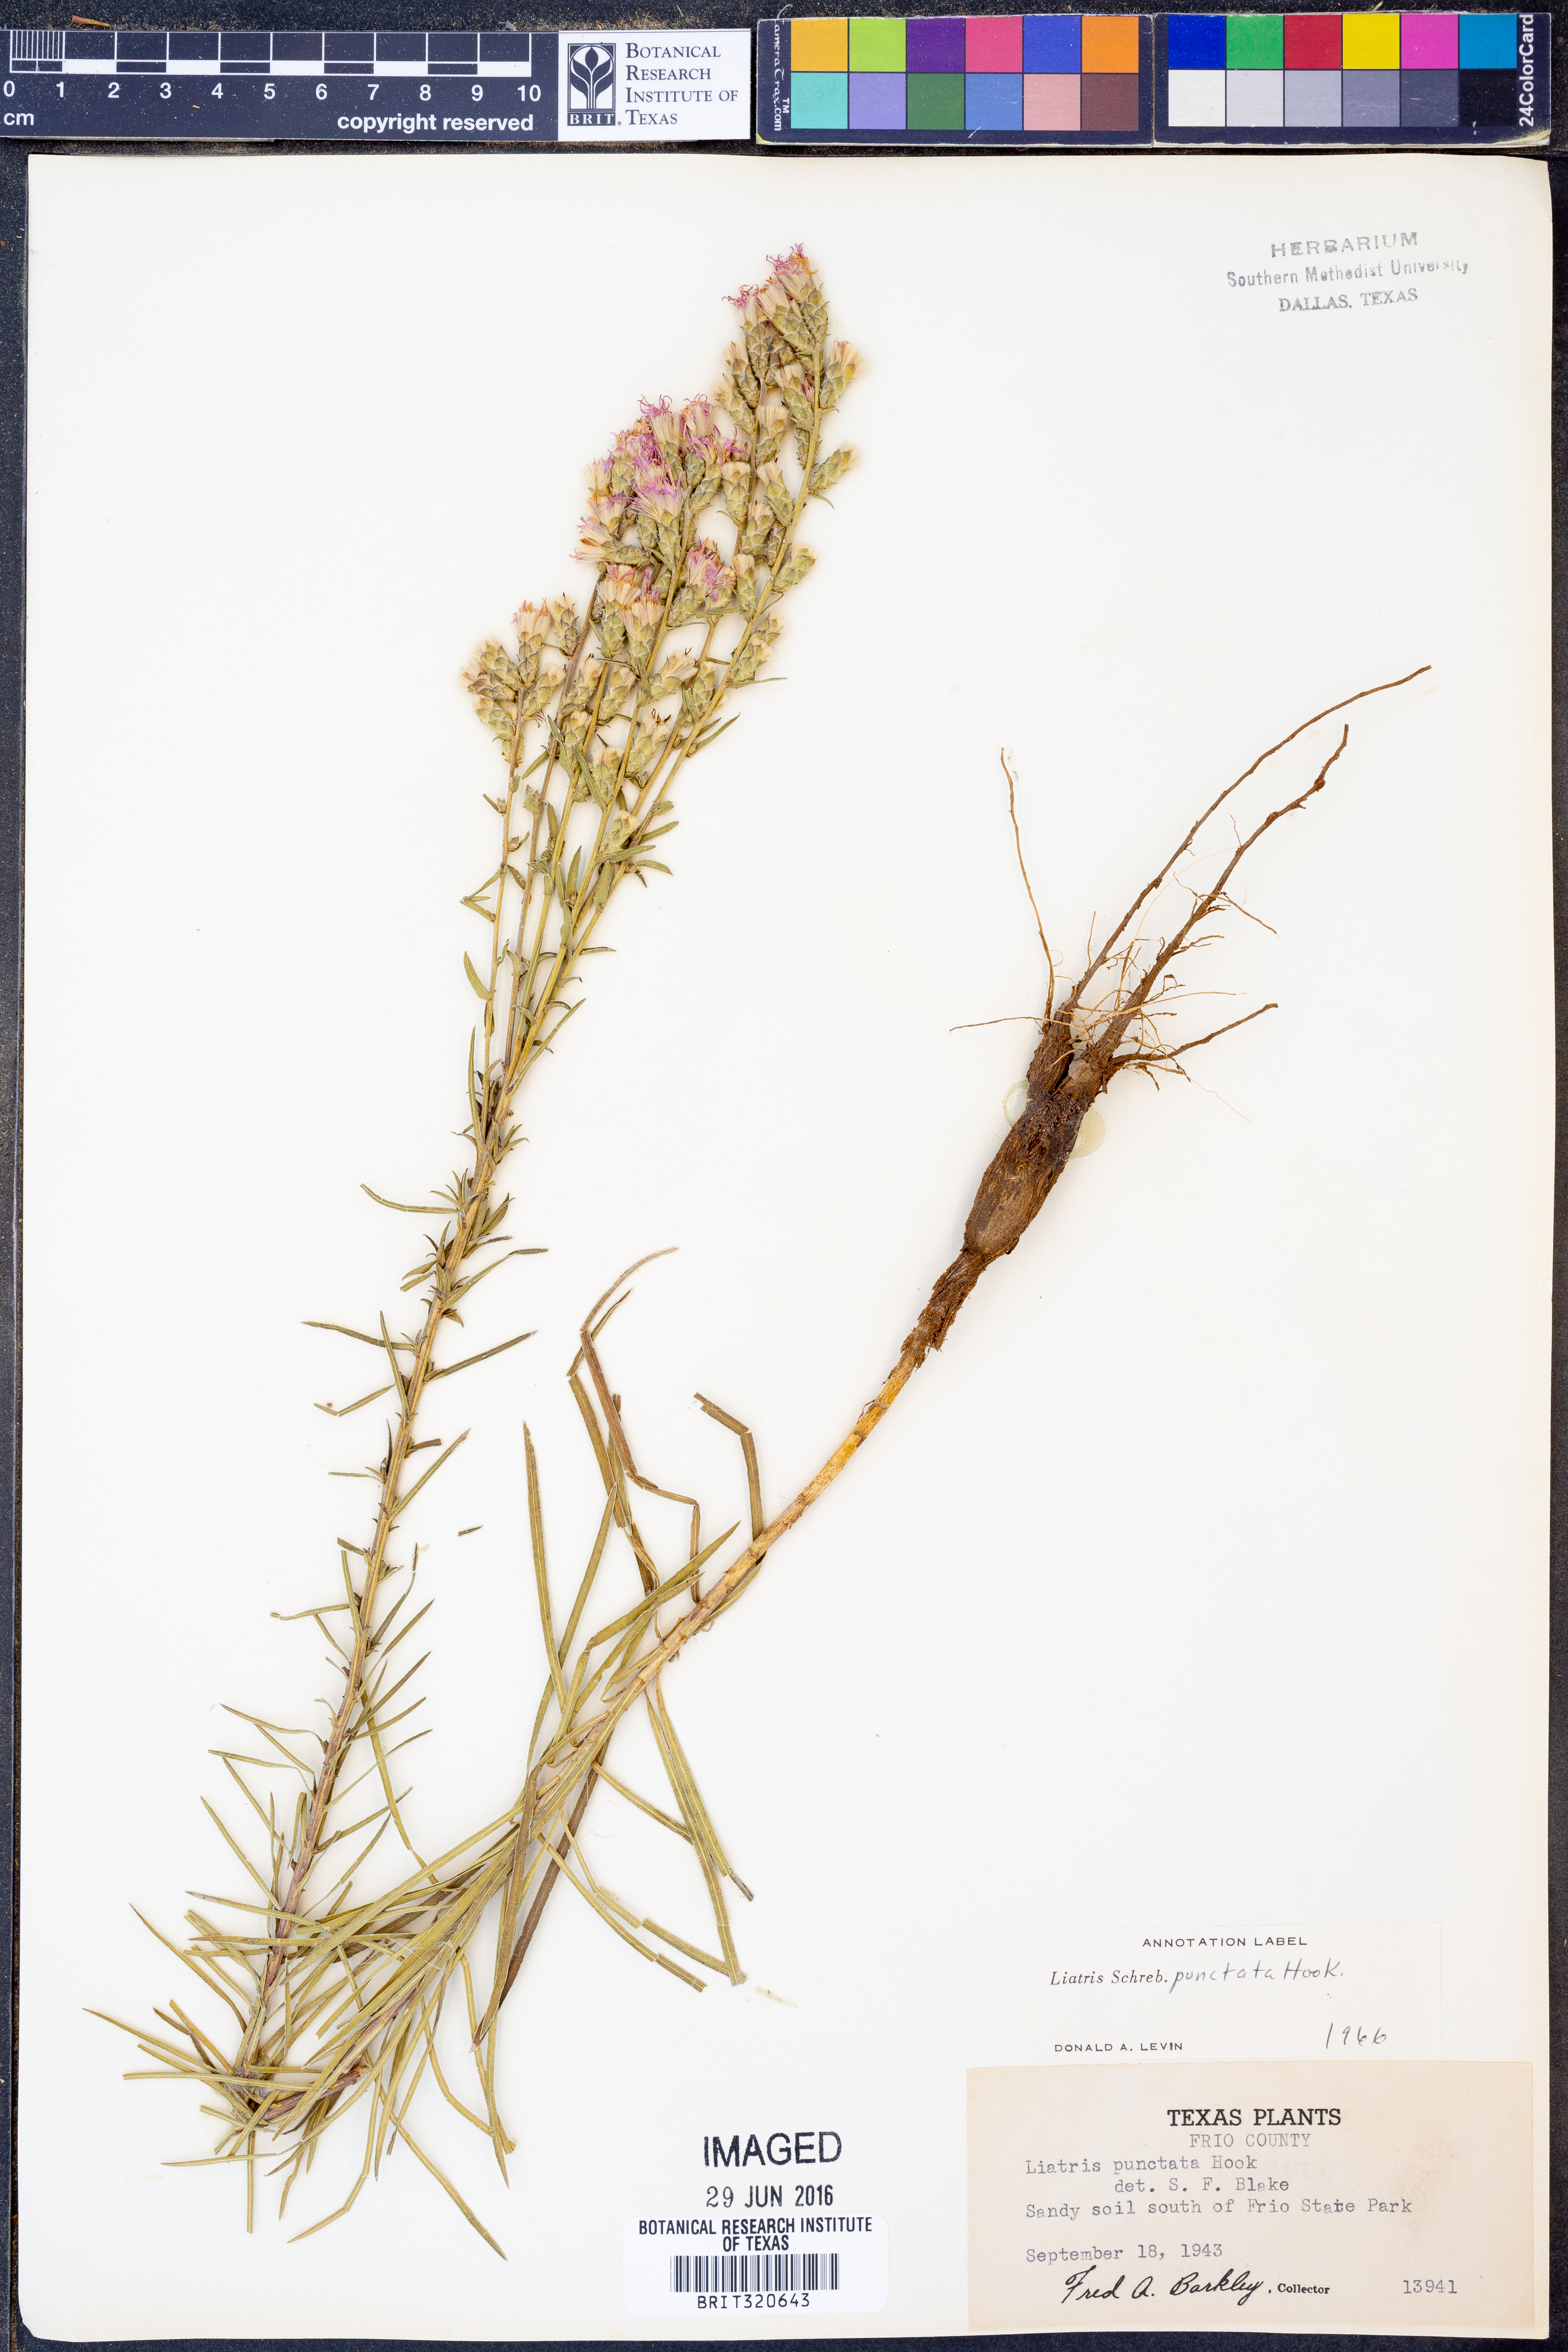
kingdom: Plantae
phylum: Tracheophyta
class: Magnoliopsida
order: Asterales
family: Asteraceae
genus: Liatris
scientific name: Liatris punctata
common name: Dotted gayfeather
